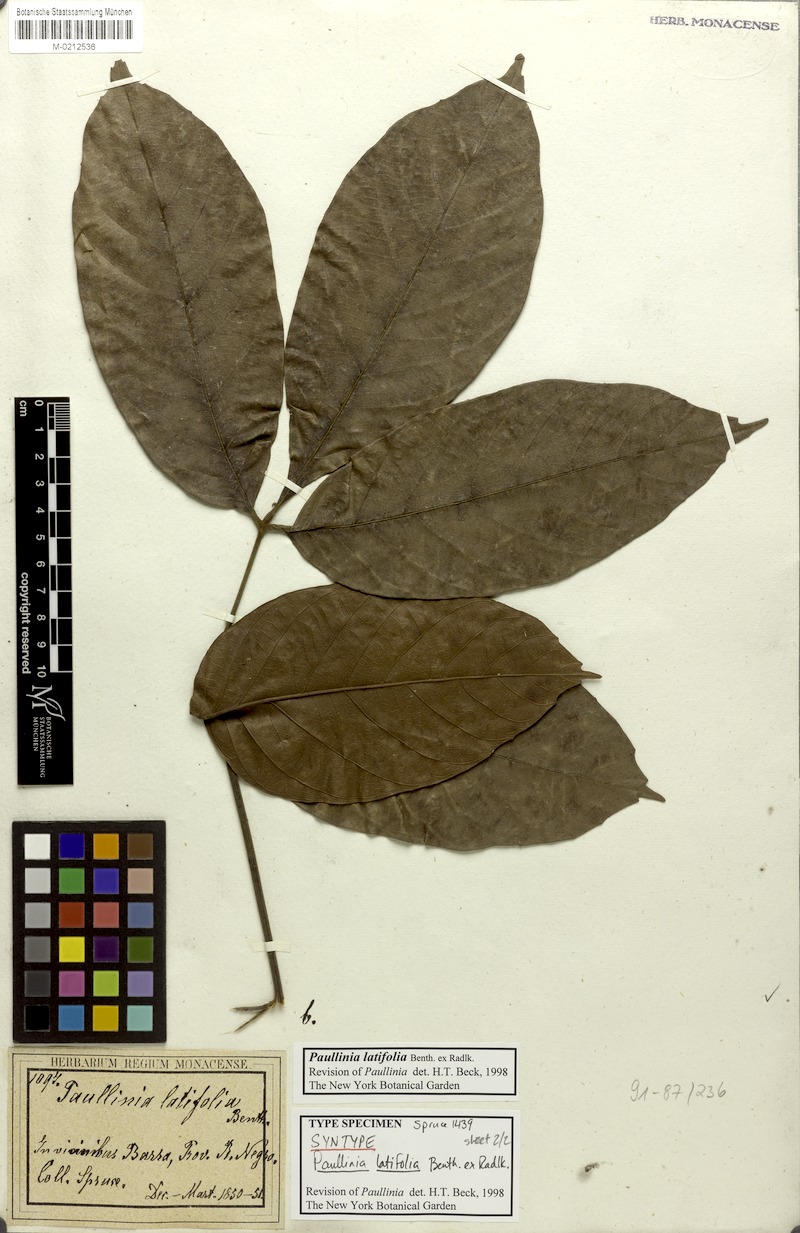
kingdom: Plantae
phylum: Tracheophyta
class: Magnoliopsida
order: Sapindales
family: Sapindaceae
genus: Paullinia
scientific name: Paullinia latifolia
